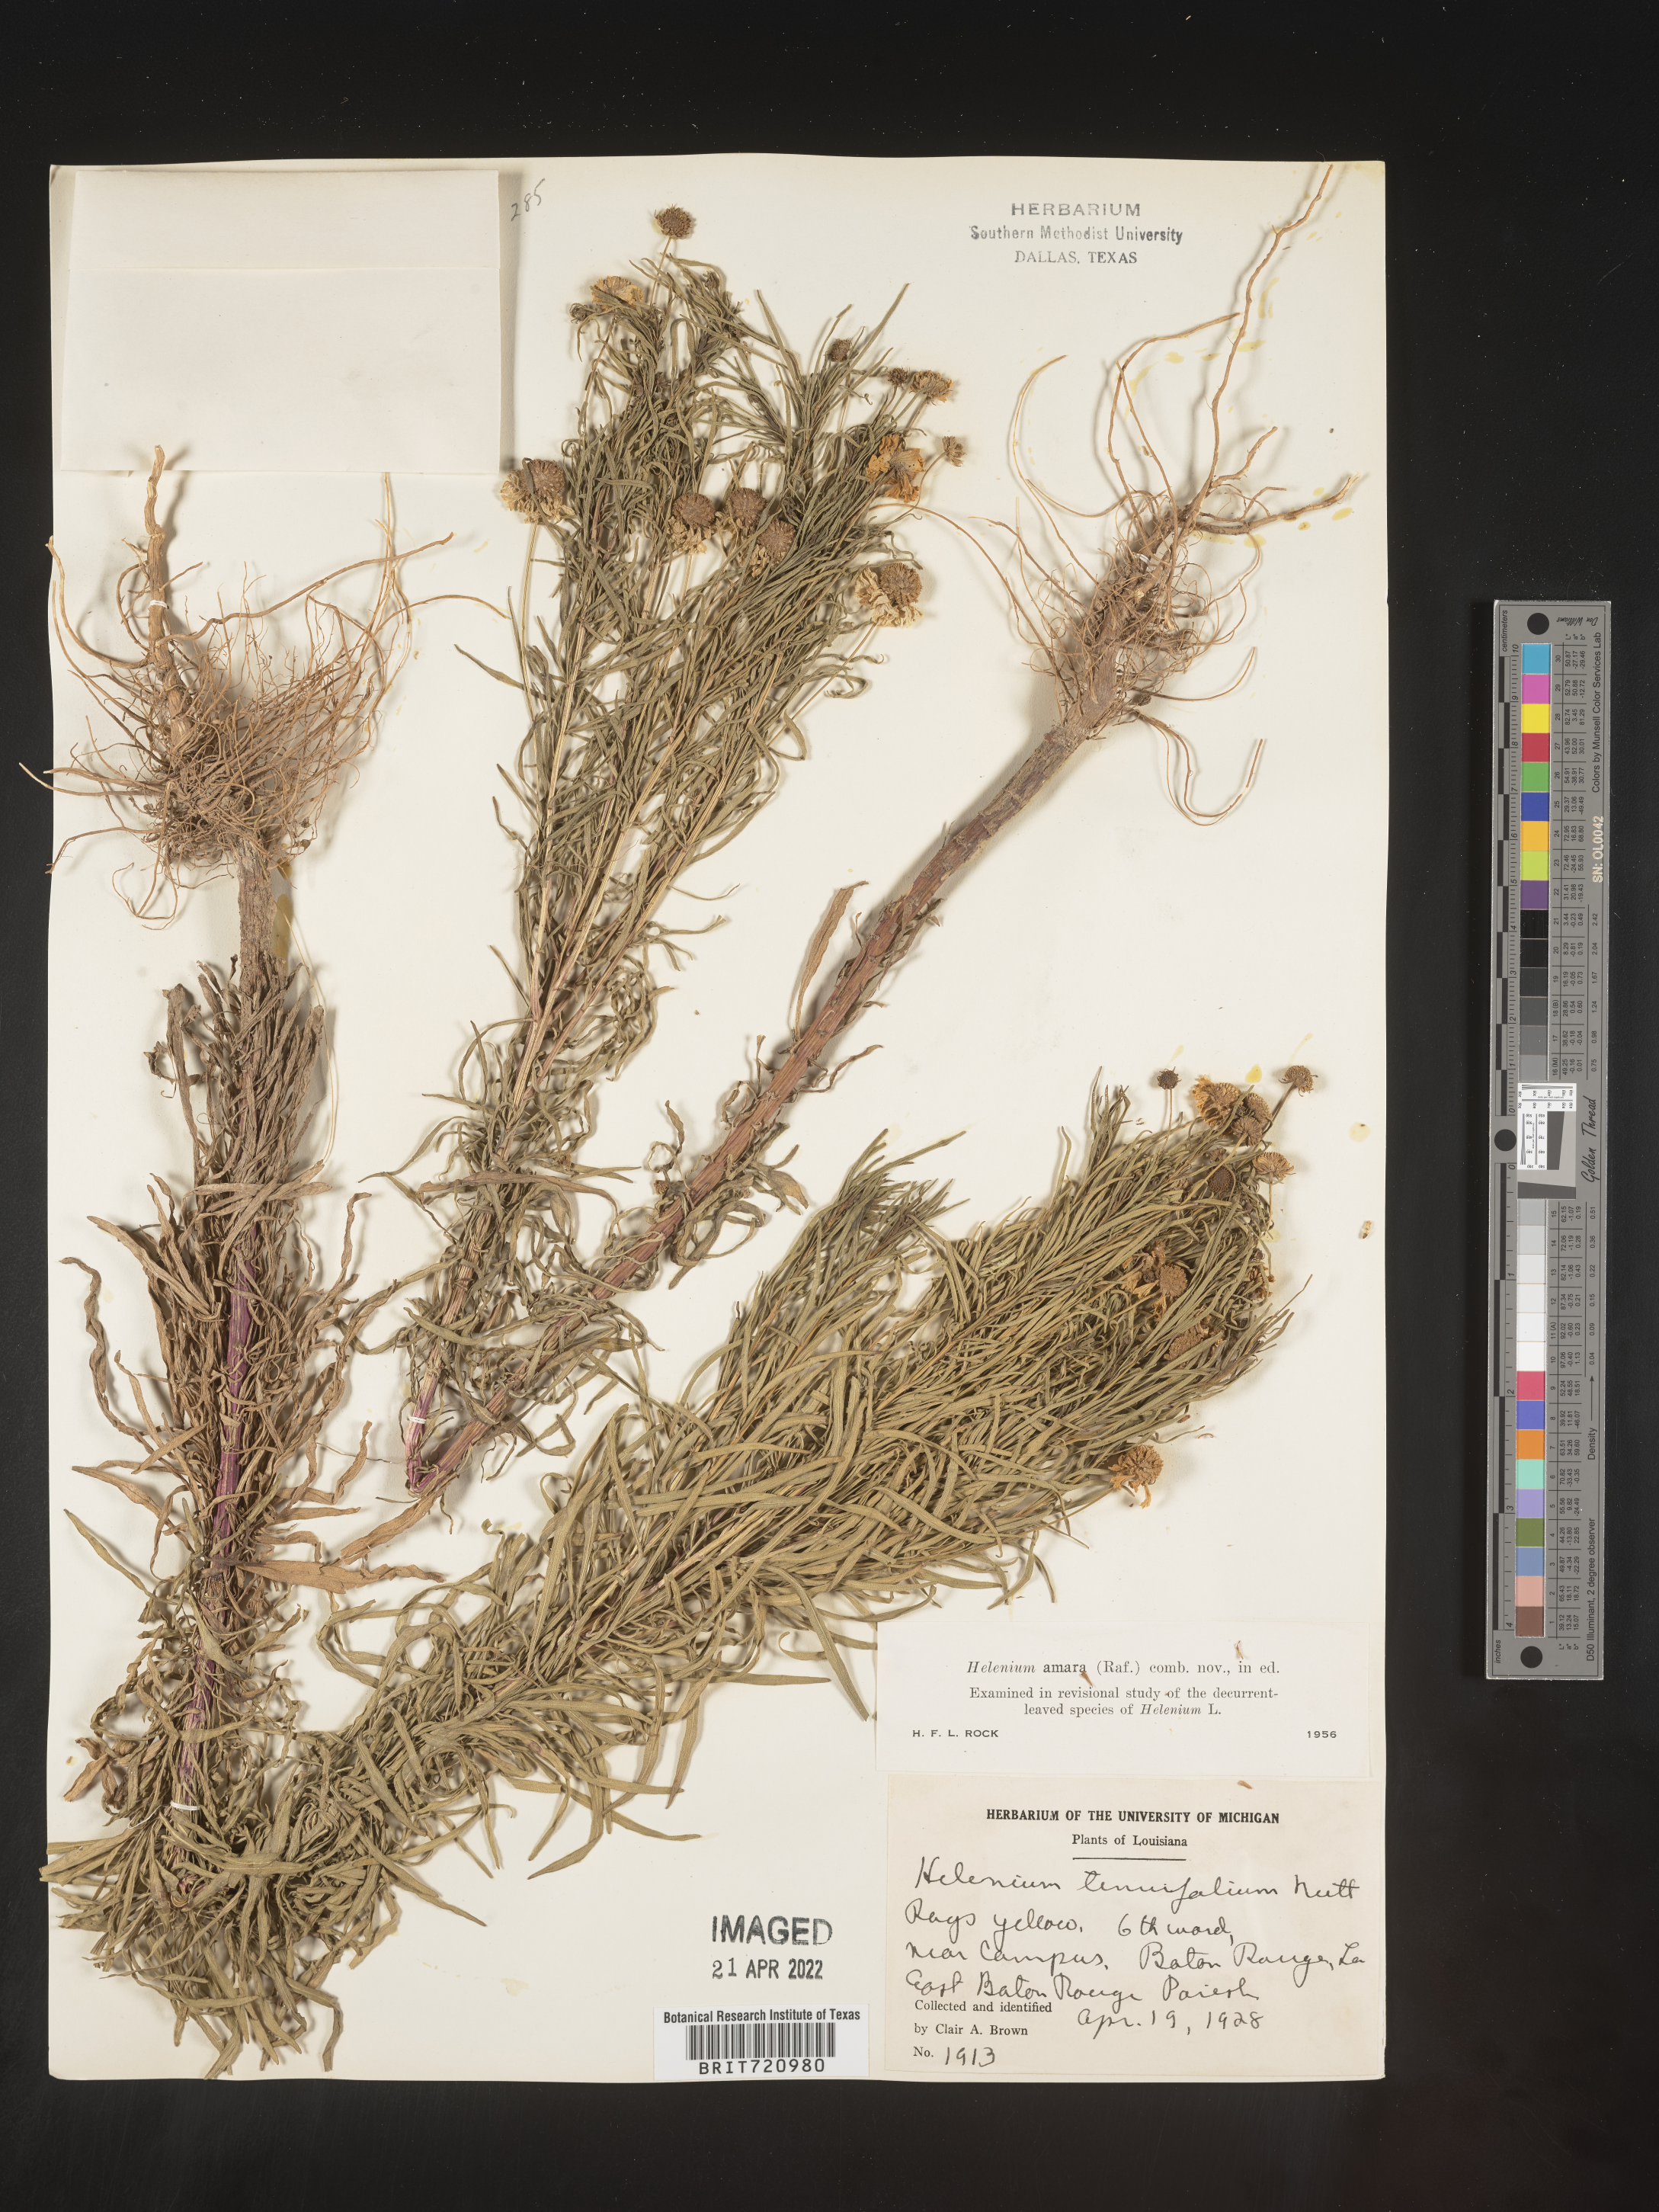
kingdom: Plantae
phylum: Tracheophyta
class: Magnoliopsida
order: Asterales
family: Asteraceae
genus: Helenium
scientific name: Helenium amarum
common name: Bitter sneezeweed
